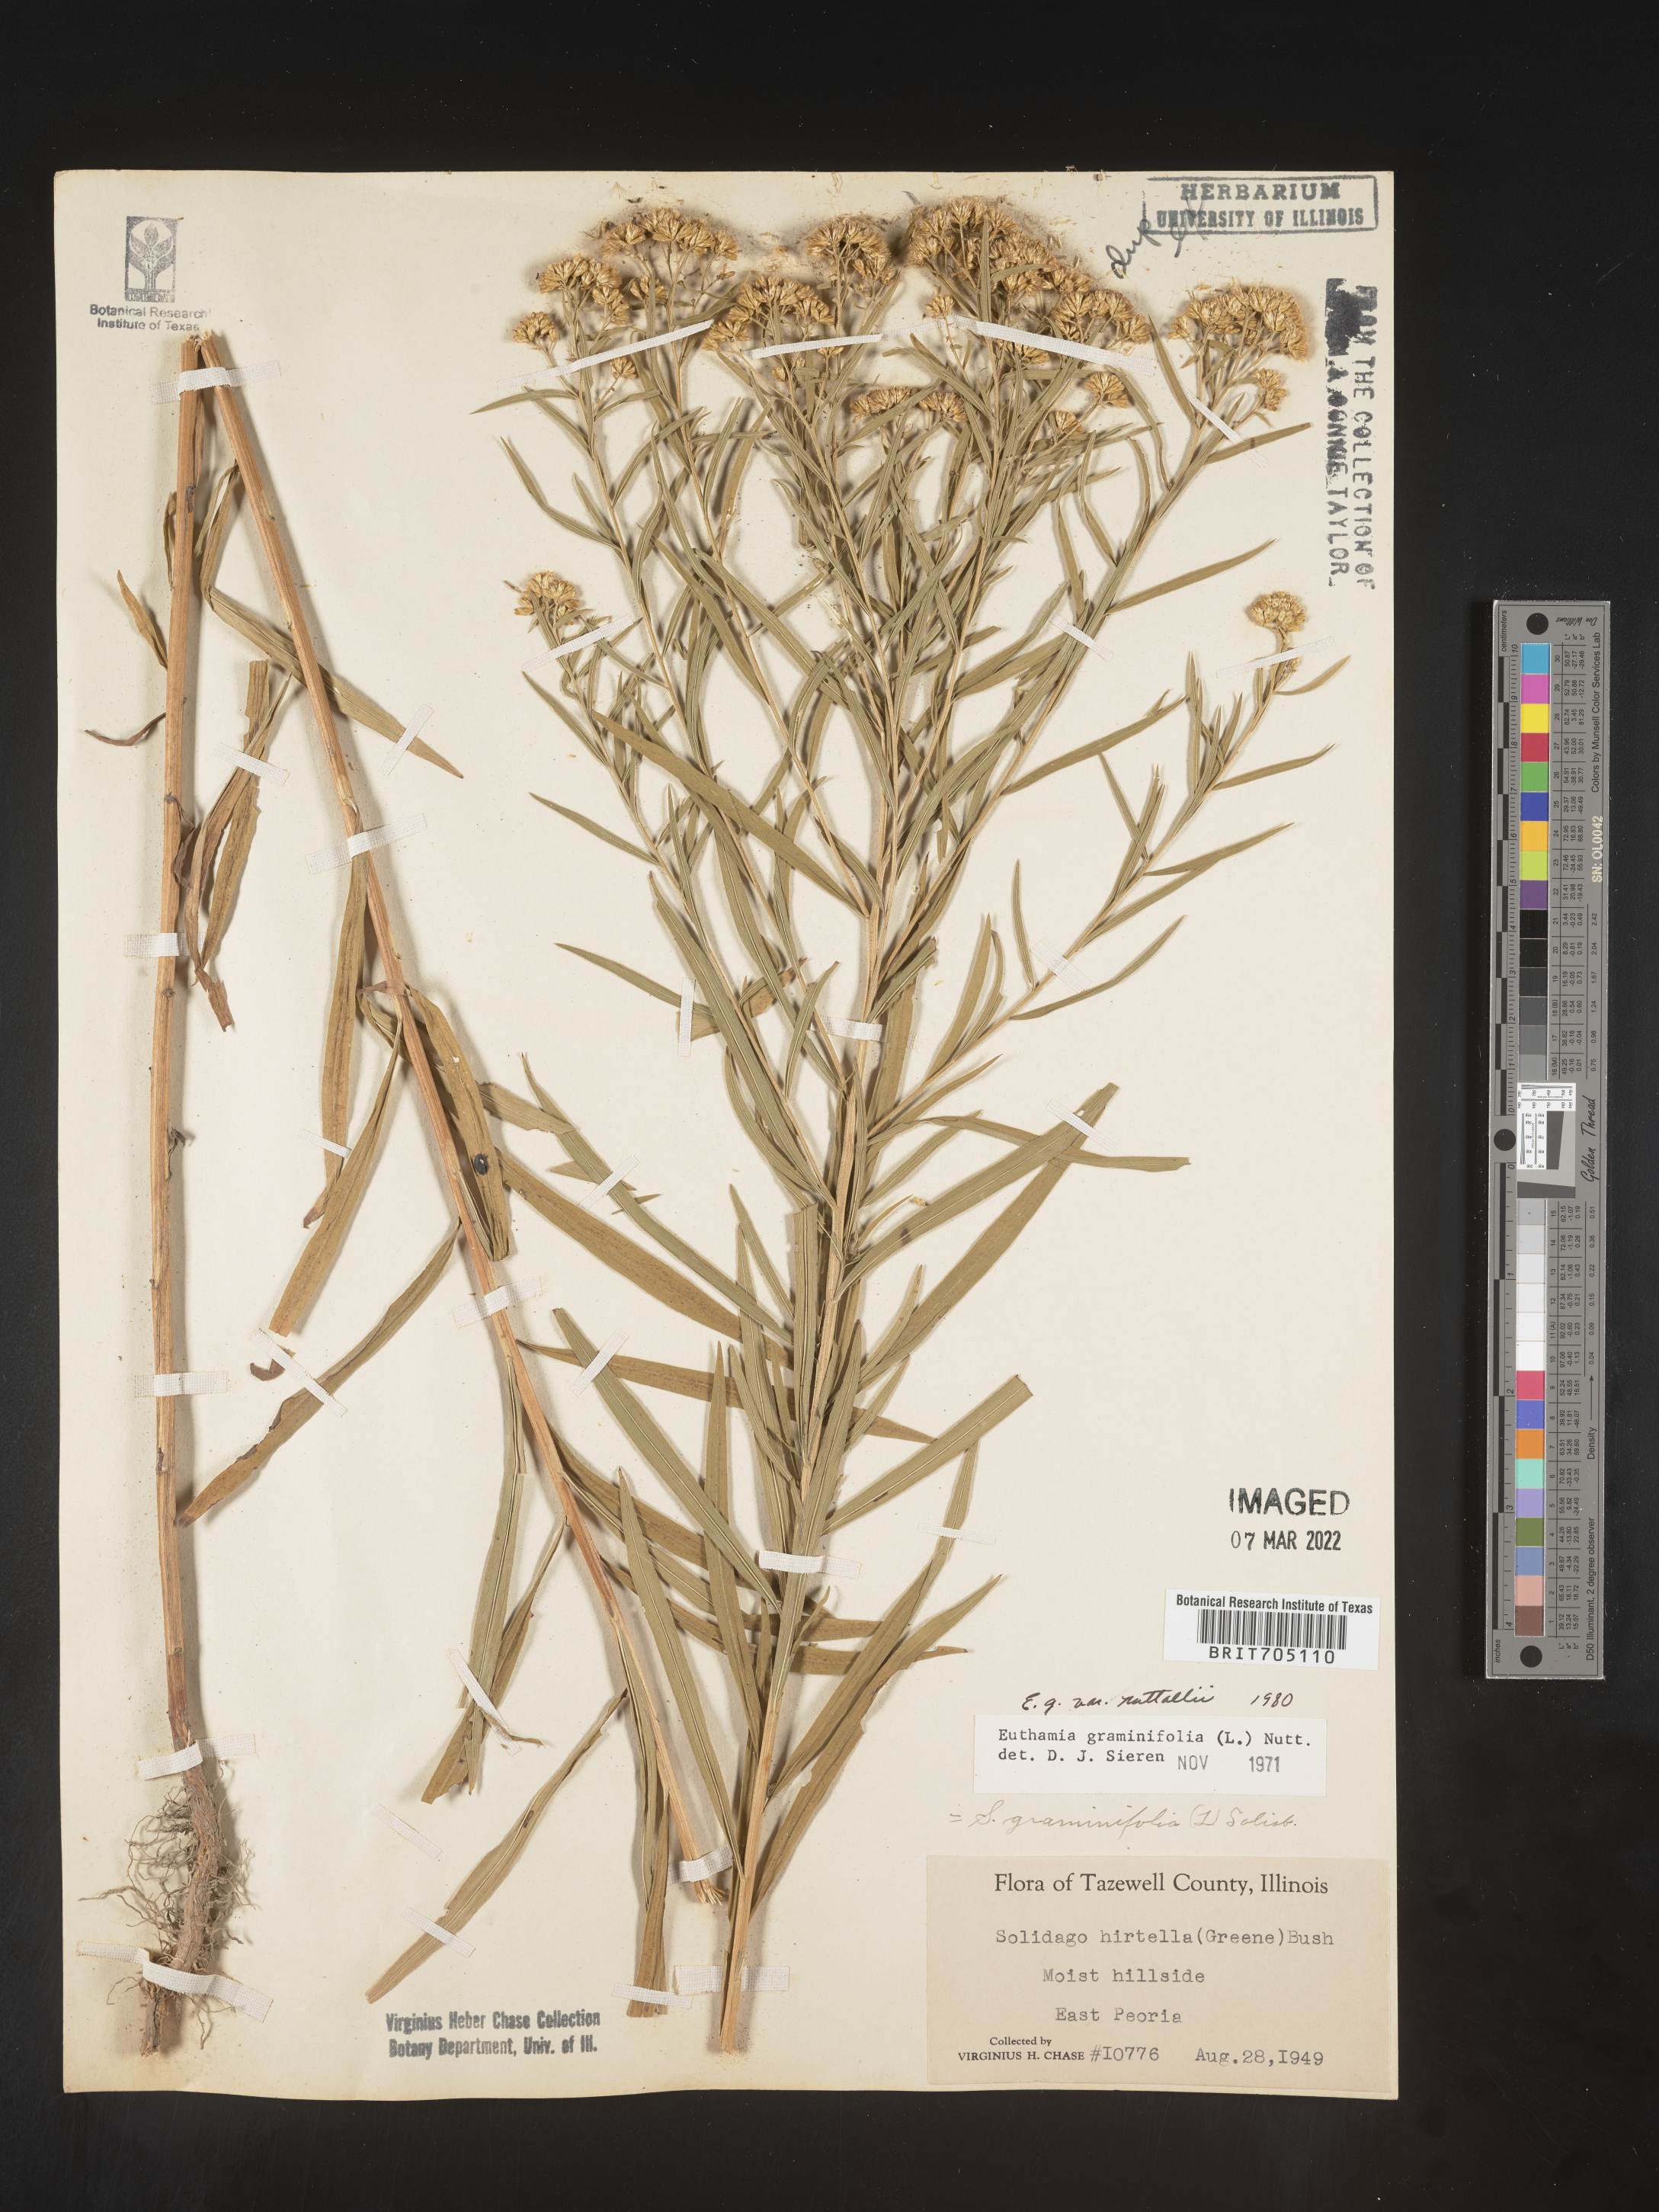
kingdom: Plantae
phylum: Tracheophyta
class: Magnoliopsida
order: Asterales
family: Asteraceae
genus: Euthamia
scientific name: Euthamia graminifolia
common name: Common goldentop
